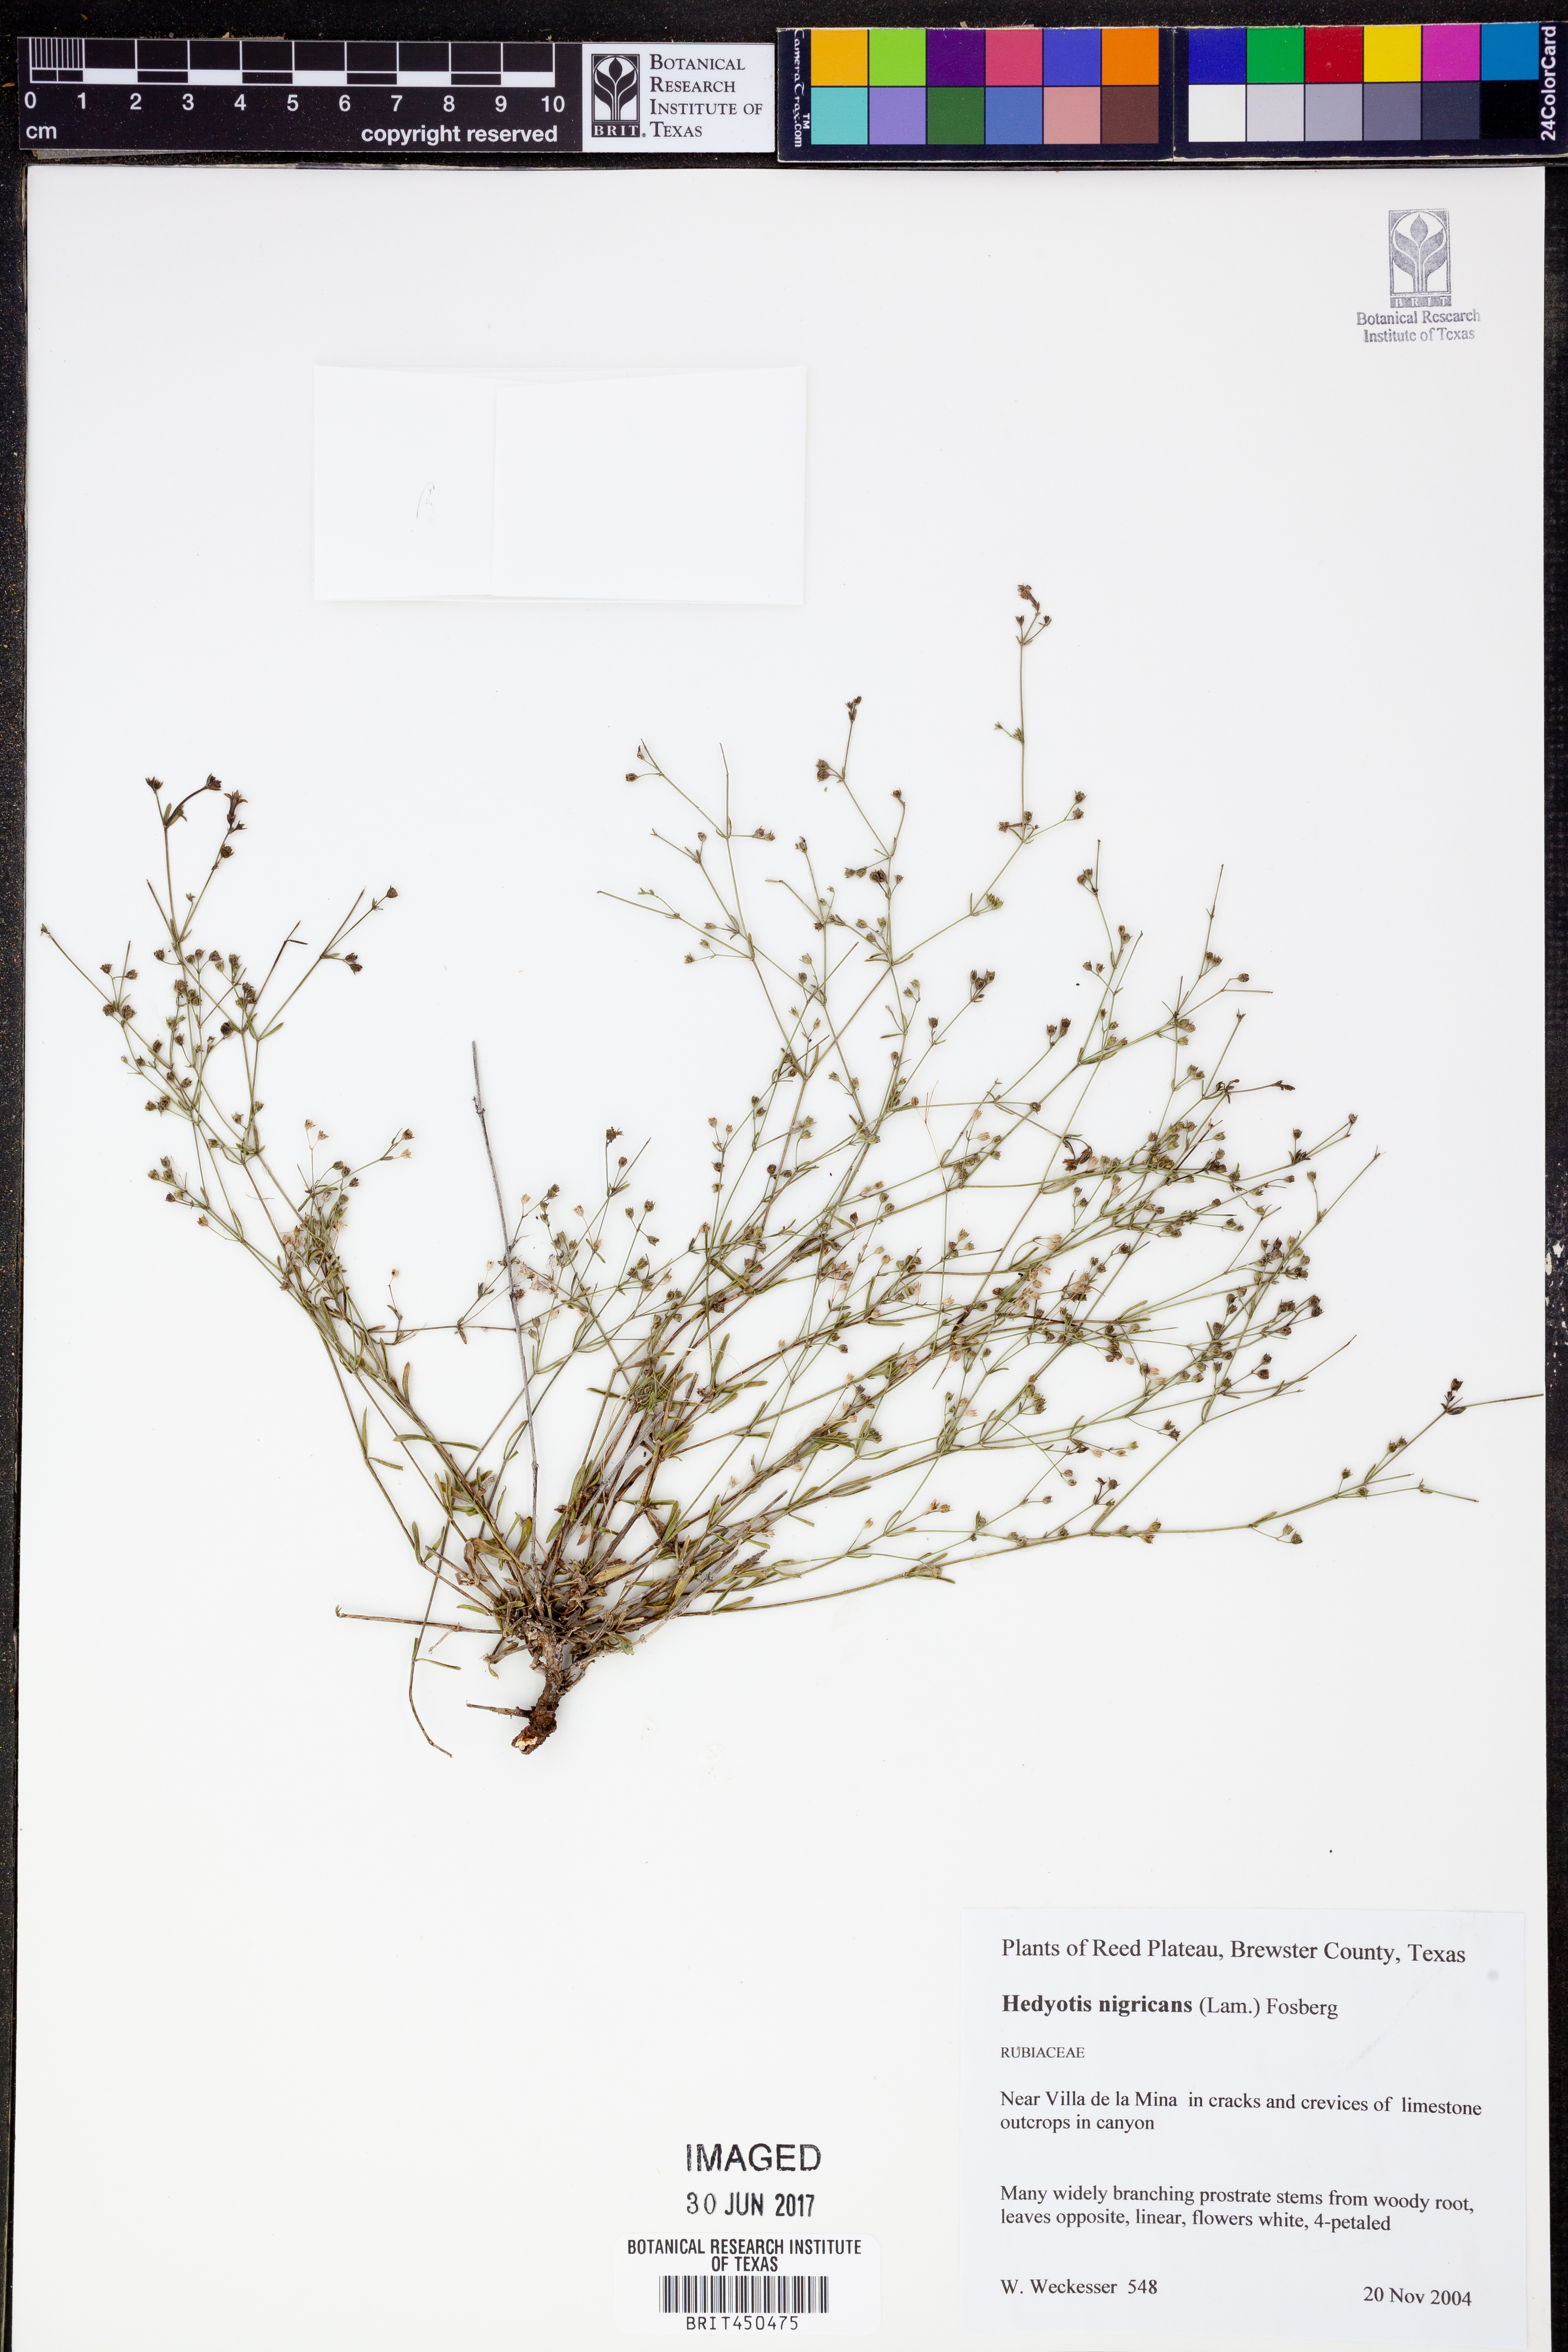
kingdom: Plantae
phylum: Tracheophyta
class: Magnoliopsida
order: Gentianales
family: Rubiaceae
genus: Stenaria
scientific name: Stenaria nigricans
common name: Diamondflowers
